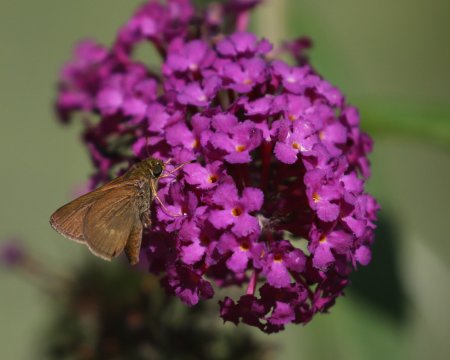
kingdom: Animalia
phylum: Arthropoda
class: Insecta
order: Lepidoptera
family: Hesperiidae
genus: Euphyes
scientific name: Euphyes conspicua
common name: Black Dash
